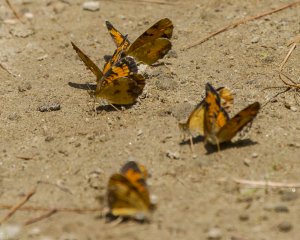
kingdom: Animalia
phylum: Arthropoda
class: Insecta
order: Lepidoptera
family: Nymphalidae
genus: Phyciodes
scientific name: Phyciodes tharos
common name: Northern Crescent
